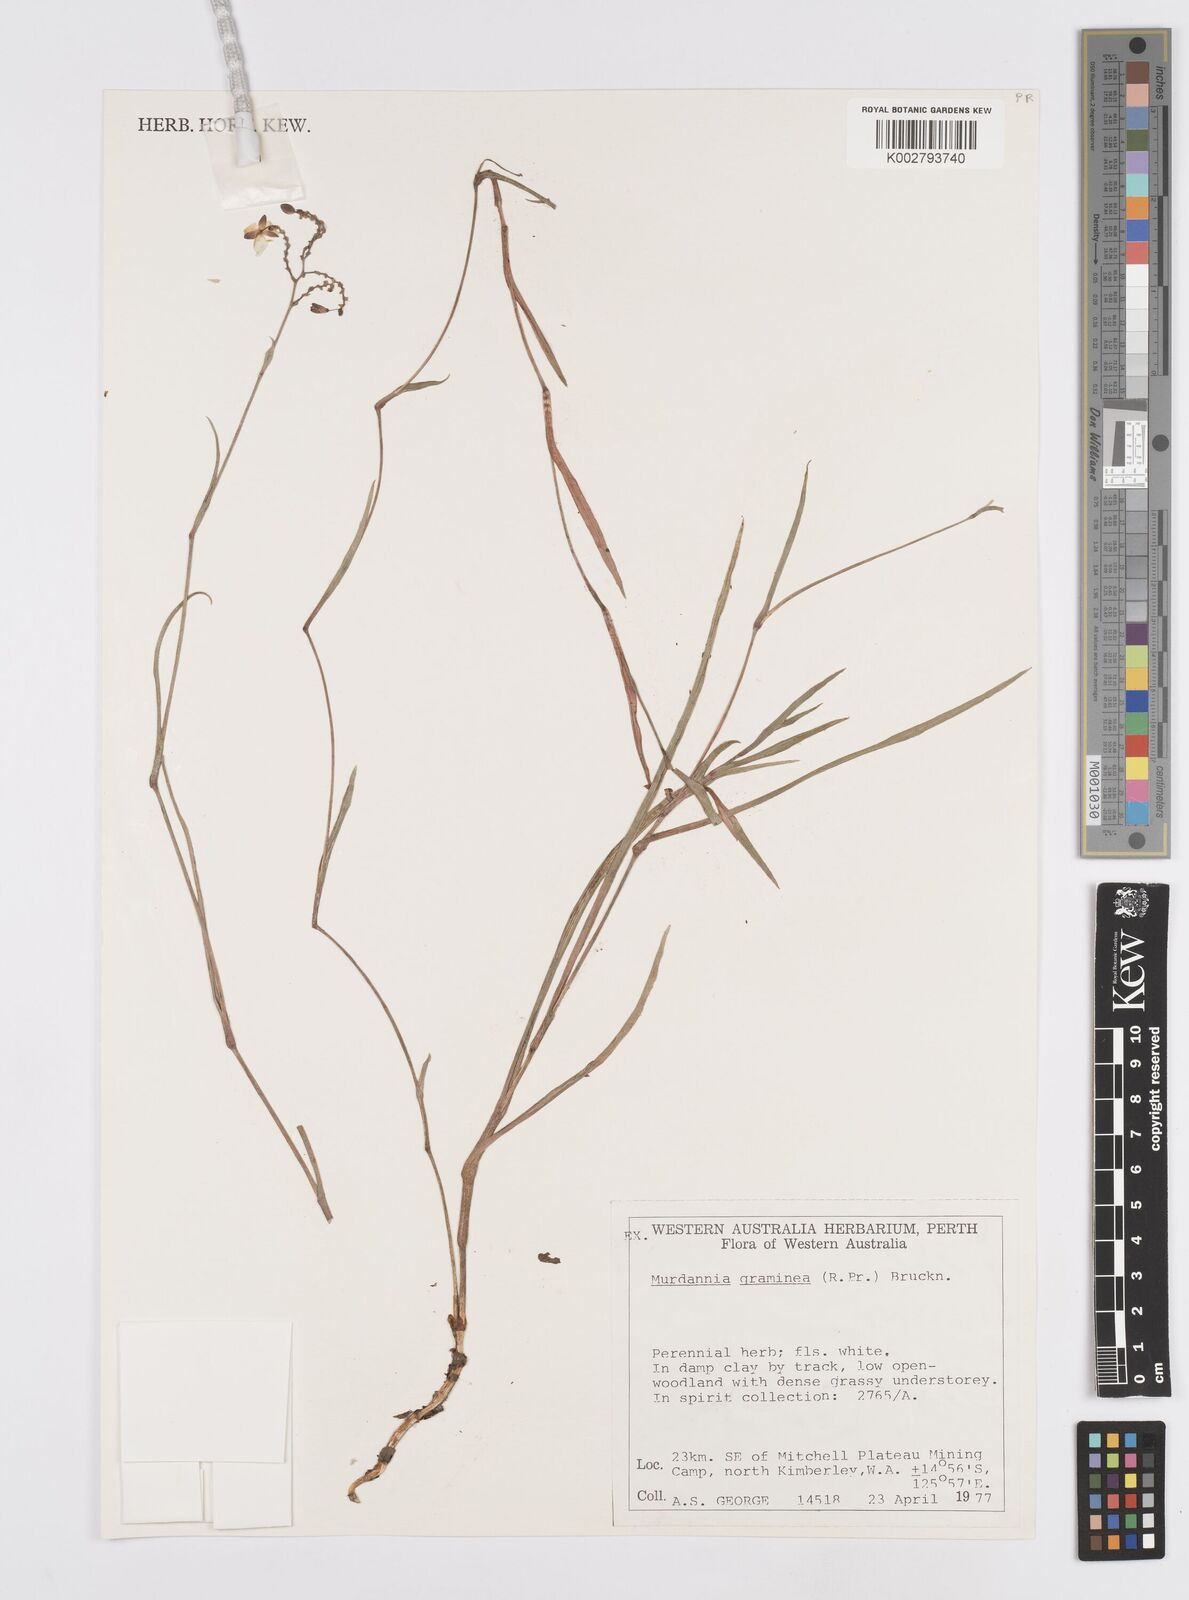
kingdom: Plantae
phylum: Tracheophyta
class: Liliopsida
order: Commelinales
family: Commelinaceae
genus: Murdannia
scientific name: Murdannia graminea
